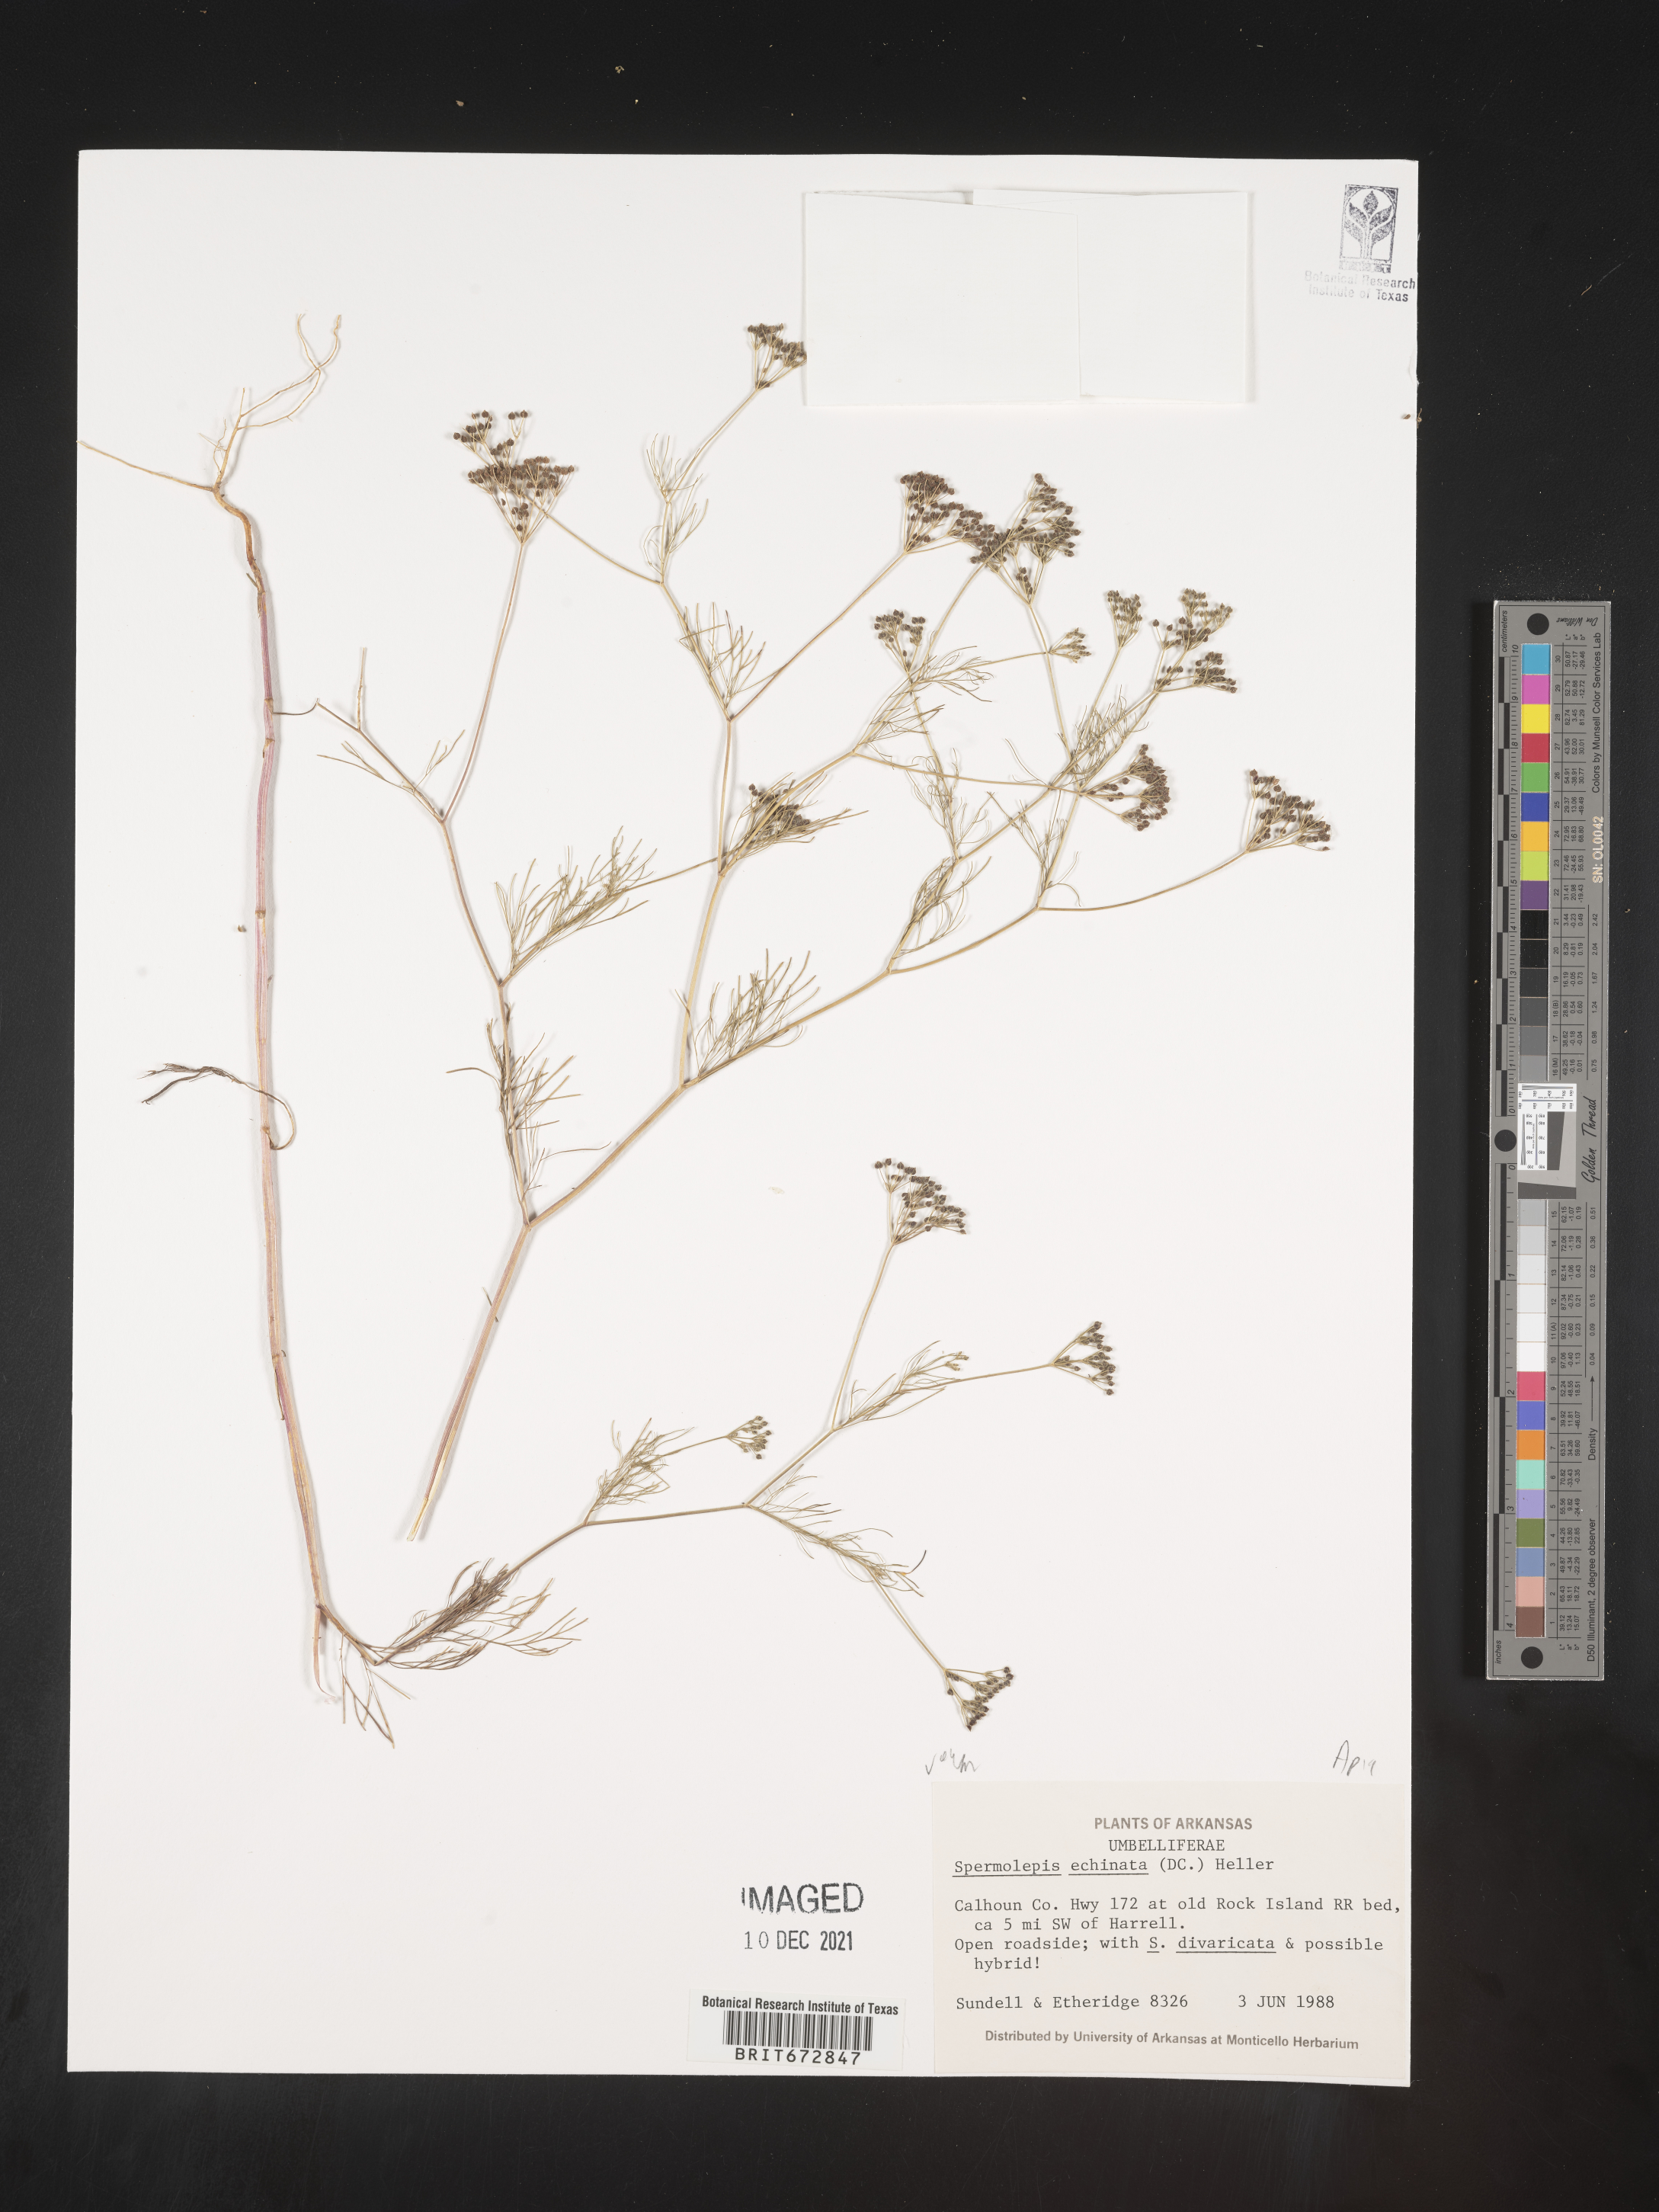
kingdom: Plantae
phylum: Tracheophyta
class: Magnoliopsida
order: Apiales
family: Apiaceae
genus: Spermolepis
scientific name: Spermolepis echinata
